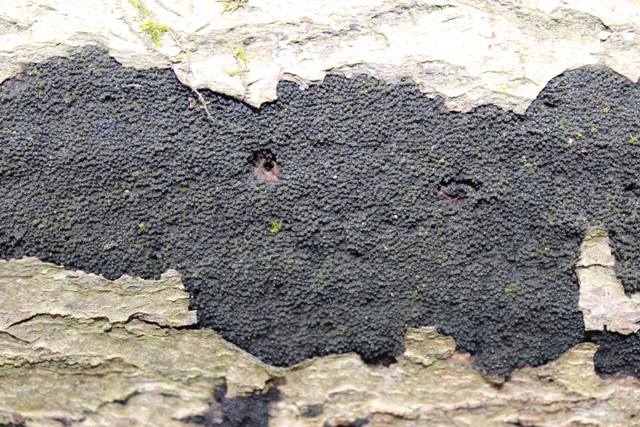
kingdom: Fungi
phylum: Ascomycota
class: Sordariomycetes
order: Xylariales
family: Diatrypaceae
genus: Eutypa
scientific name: Eutypa spinosa
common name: grov kulskorpe
